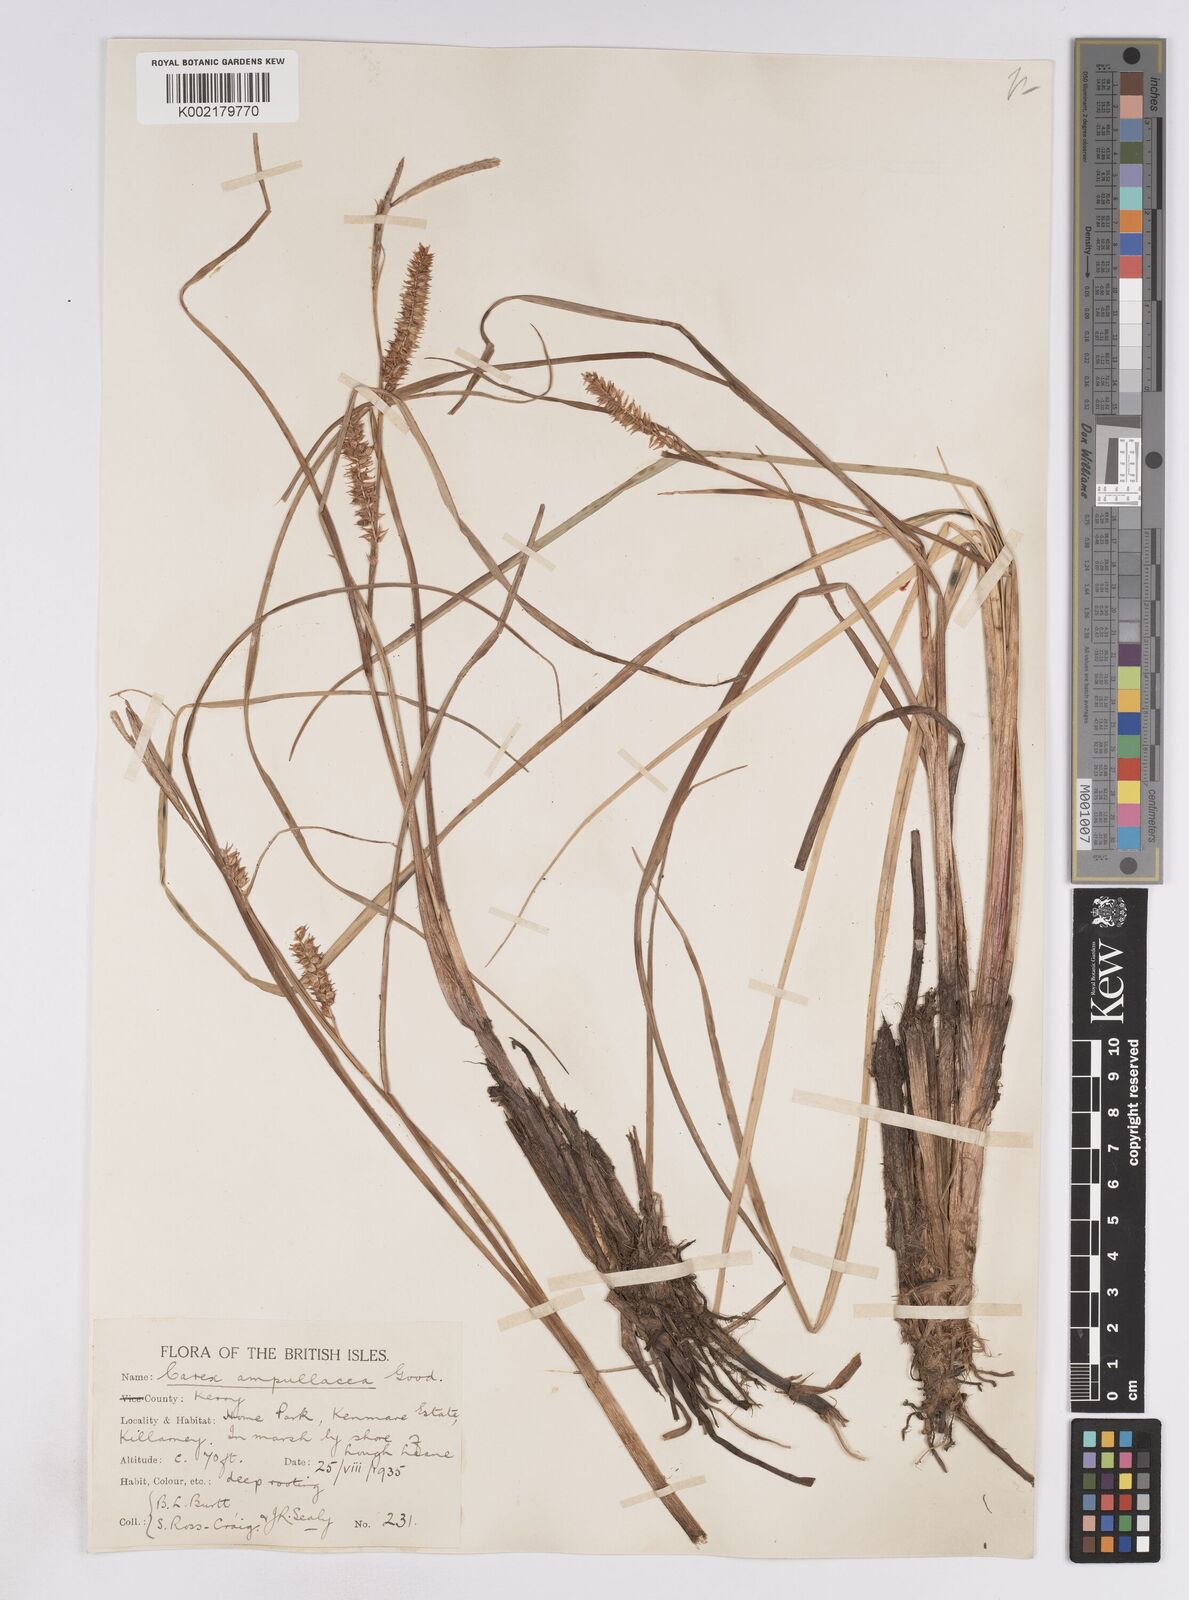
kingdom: Plantae
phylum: Tracheophyta
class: Liliopsida
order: Poales
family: Cyperaceae
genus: Carex
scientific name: Carex rostrata
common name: Bottle sedge
